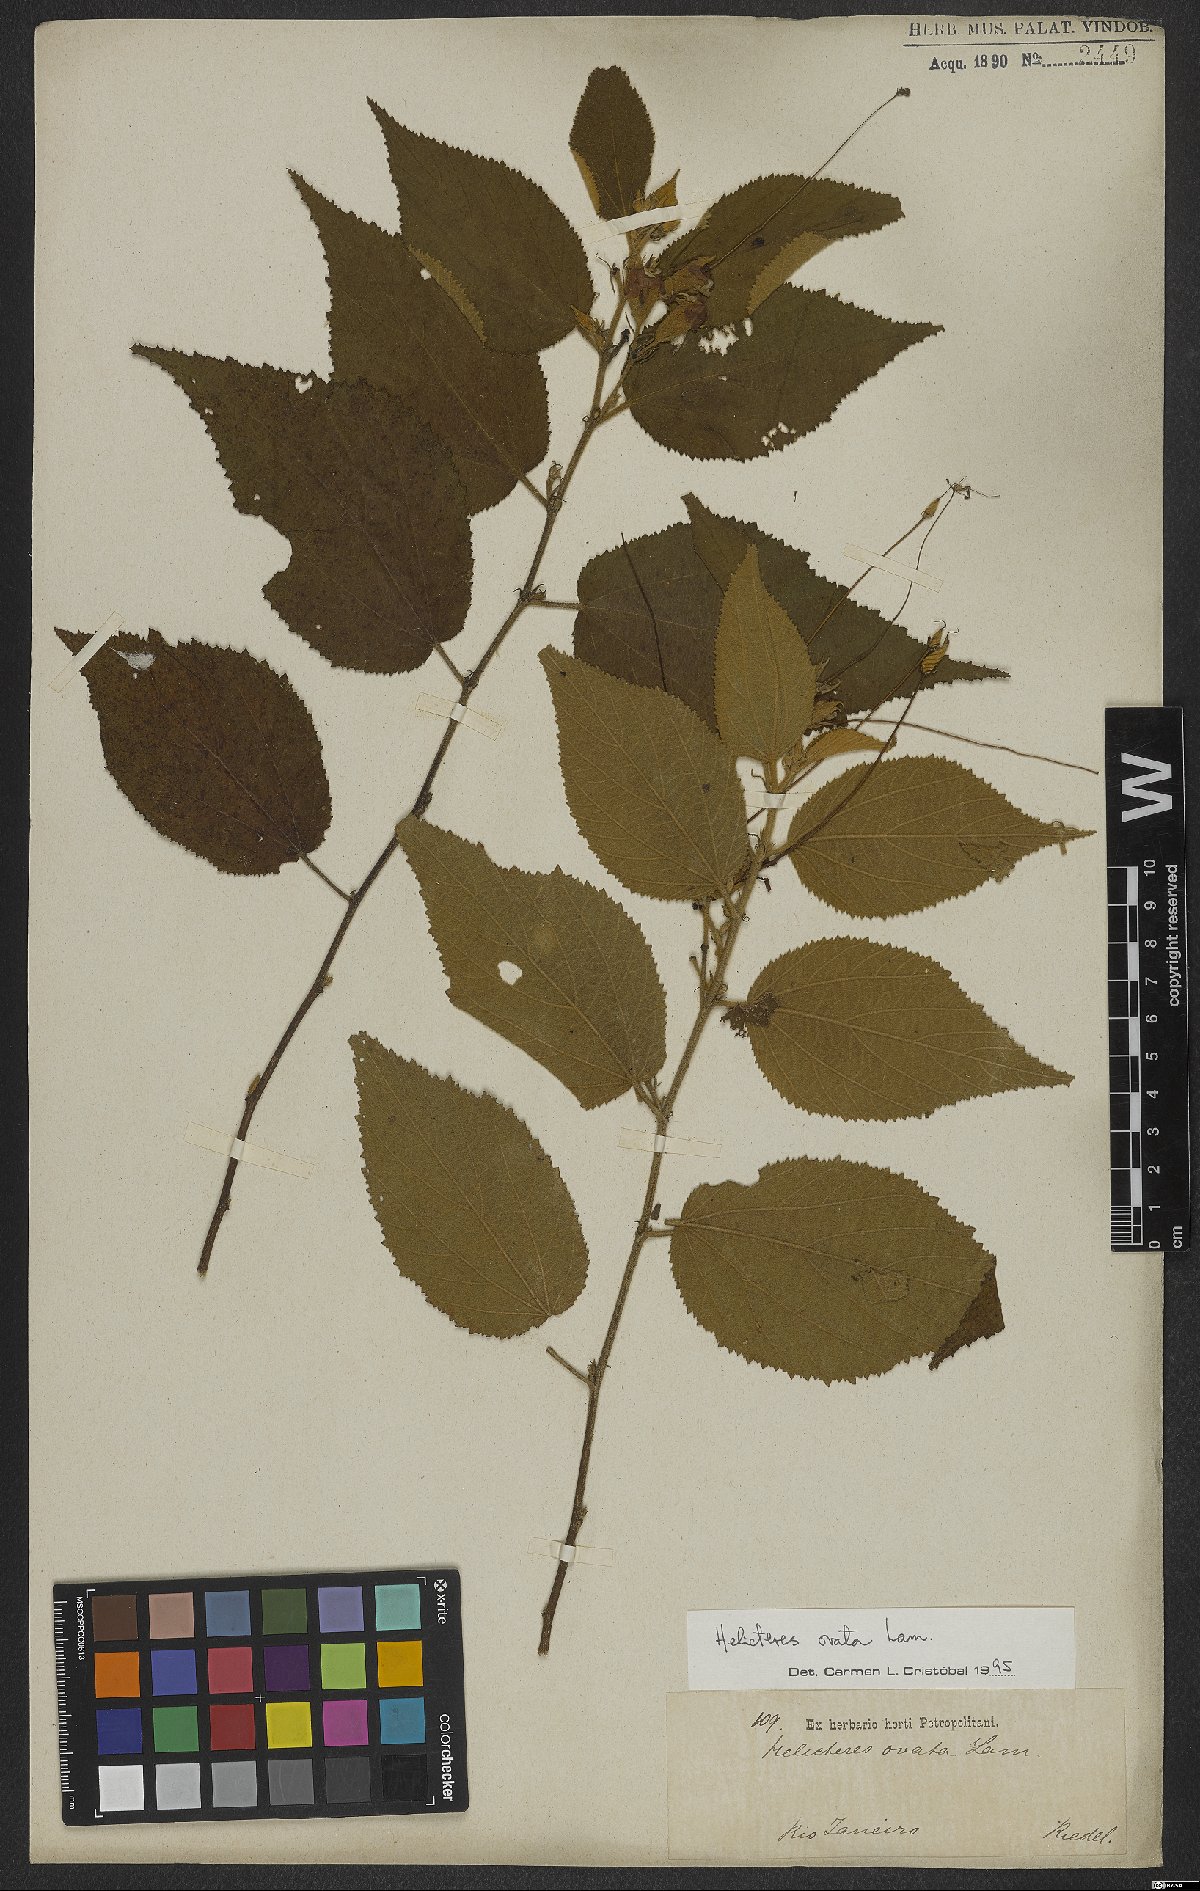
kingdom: Plantae
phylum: Tracheophyta
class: Magnoliopsida
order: Malvales
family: Malvaceae
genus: Helicteres
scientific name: Helicteres ovata
